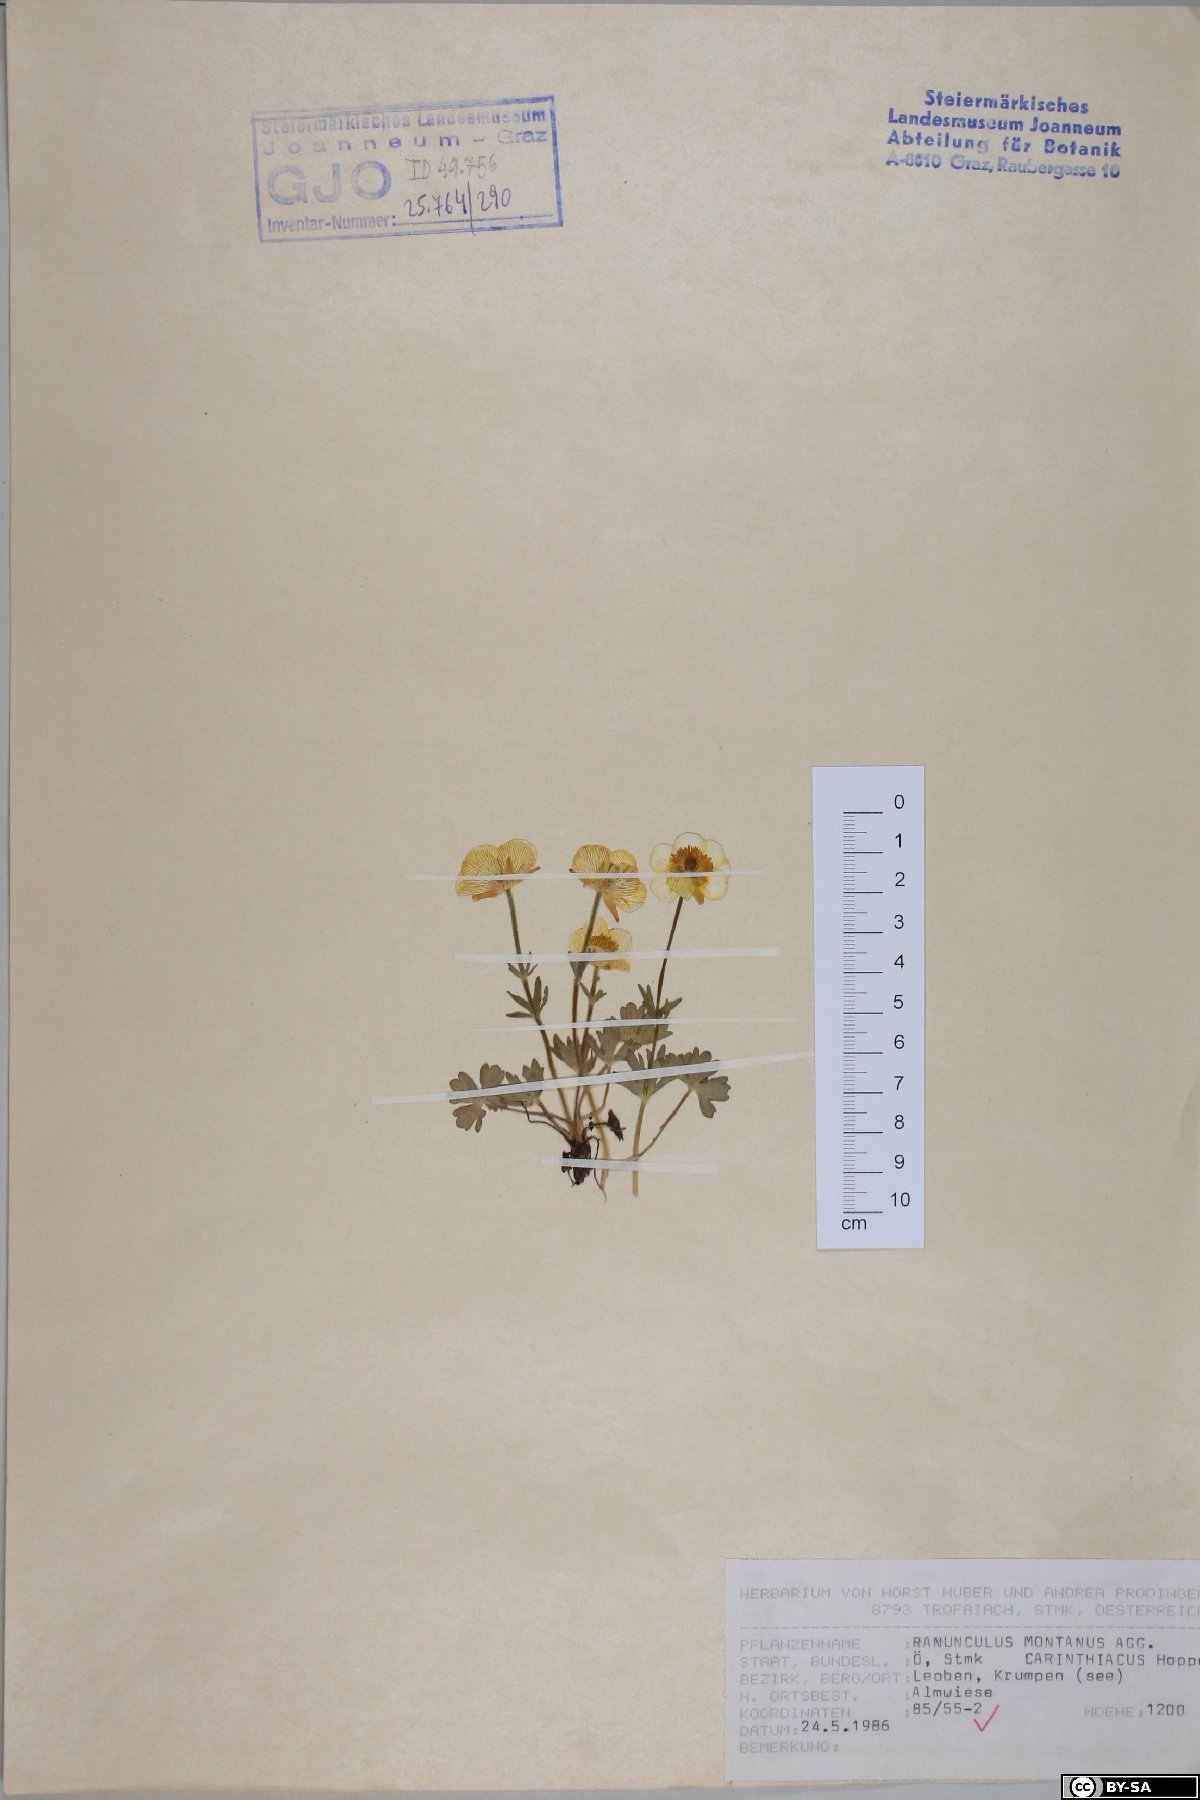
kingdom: Plantae
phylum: Tracheophyta
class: Magnoliopsida
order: Ranunculales
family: Ranunculaceae
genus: Ranunculus
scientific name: Ranunculus montanus
